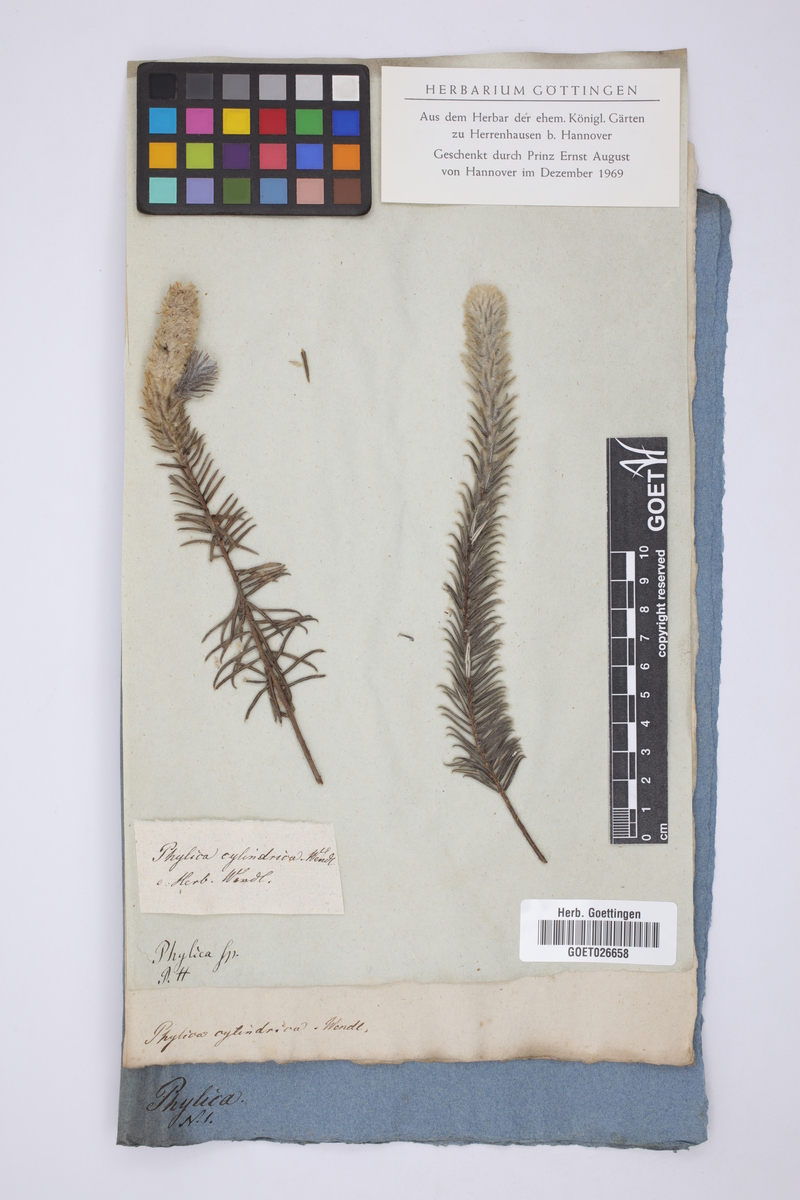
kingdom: Plantae
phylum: Tracheophyta
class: Magnoliopsida
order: Rosales
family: Rhamnaceae
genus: Phylica
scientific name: Phylica cylindrica
